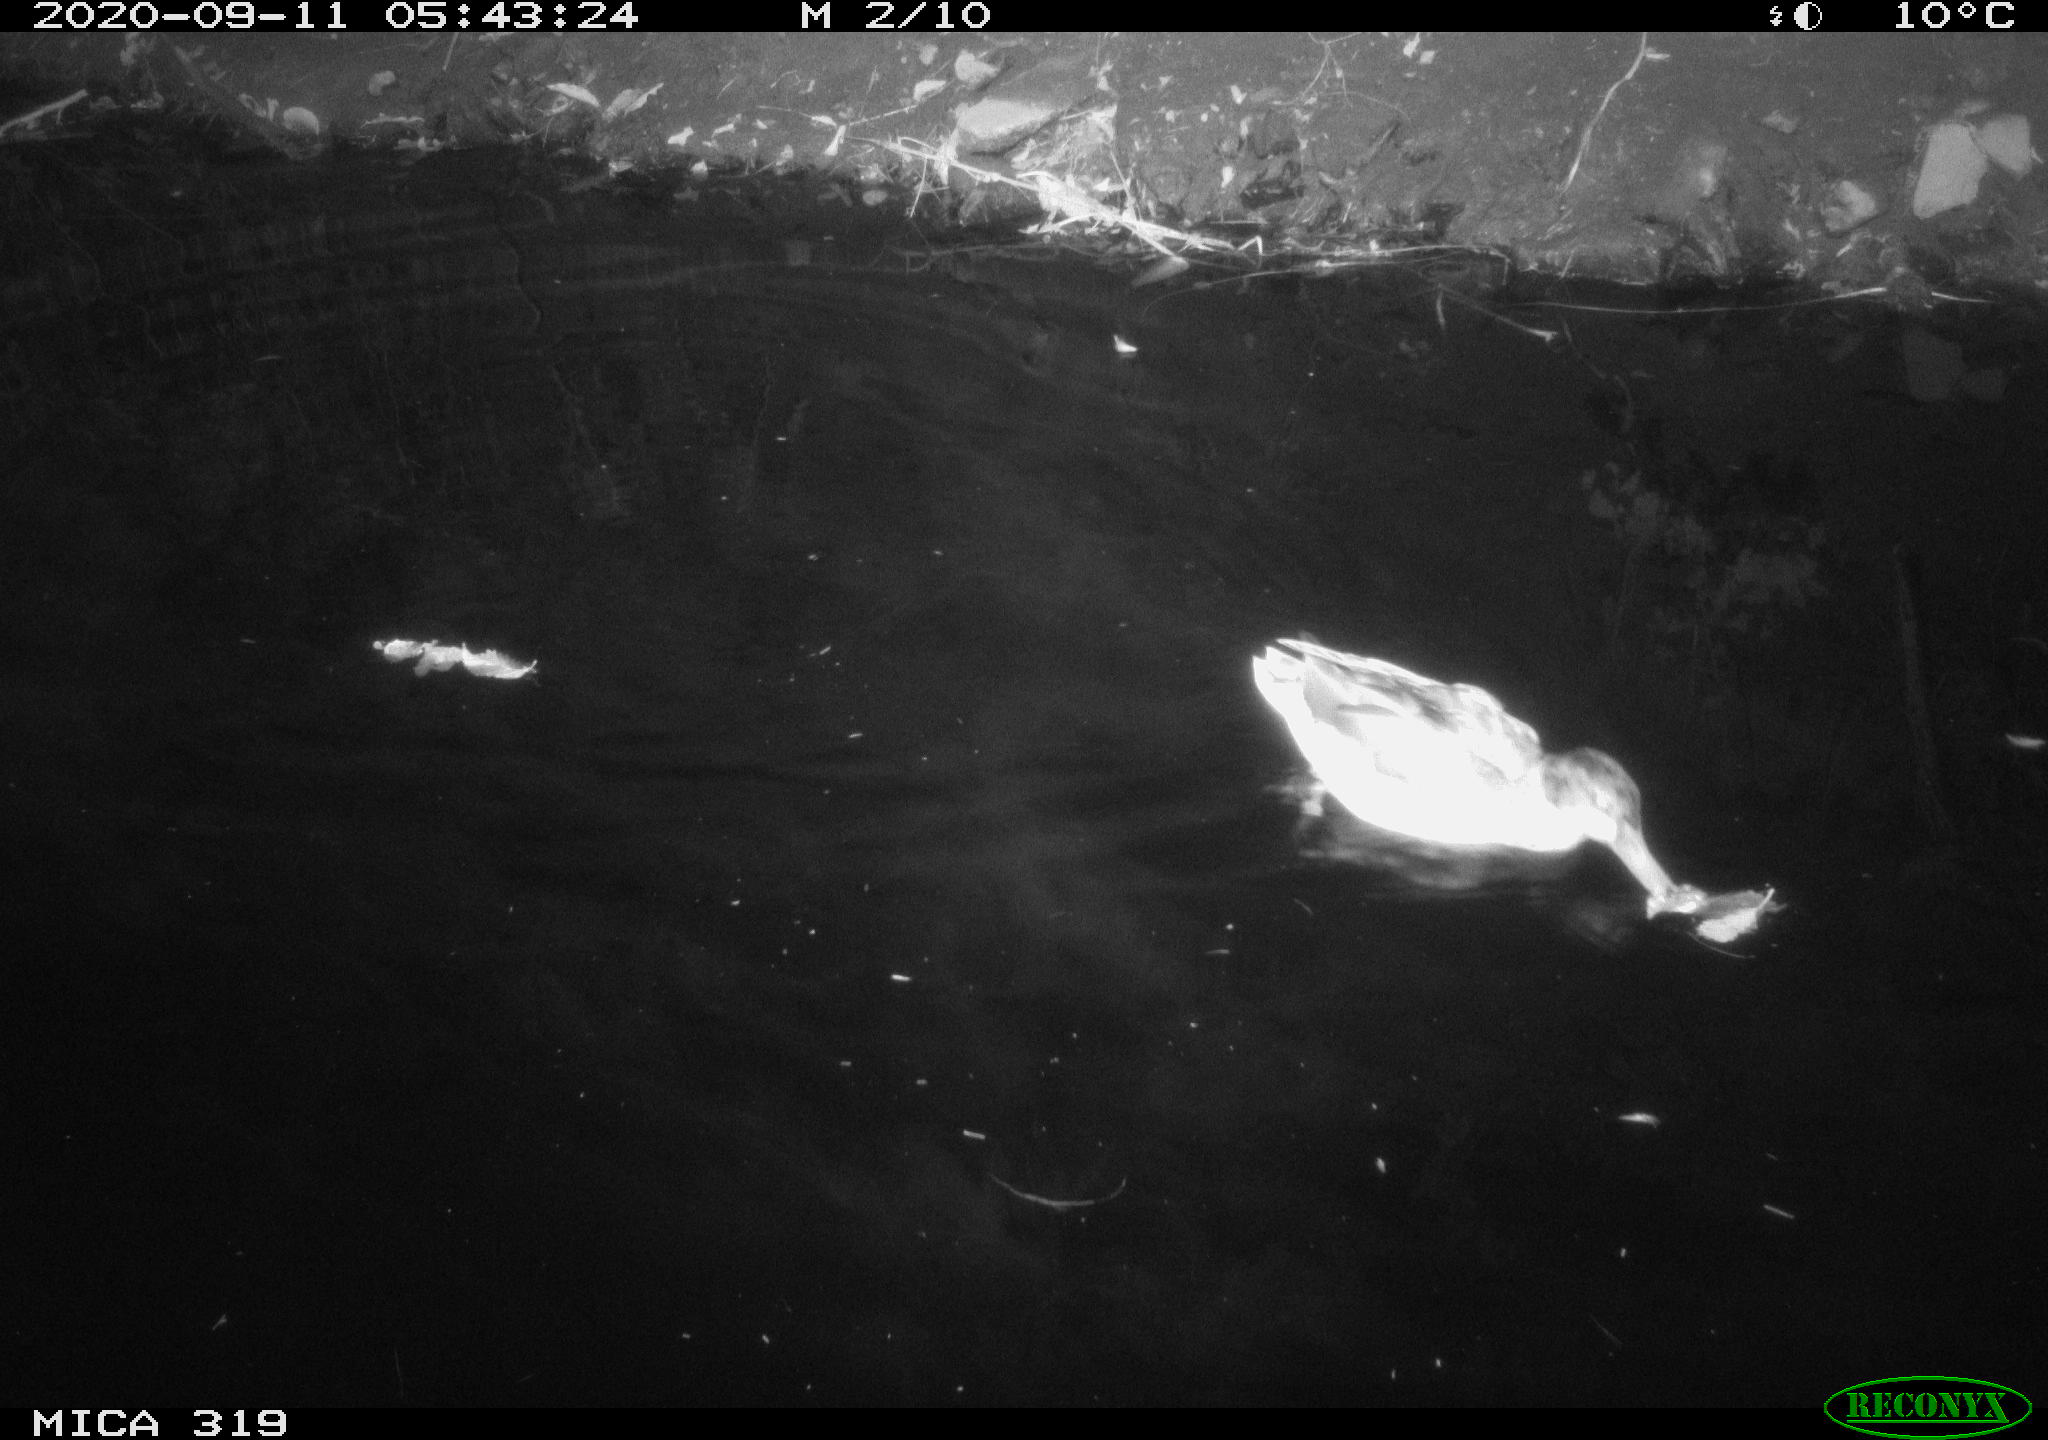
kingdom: Animalia
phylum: Chordata
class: Aves
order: Anseriformes
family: Anatidae
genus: Anas
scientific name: Anas platyrhynchos
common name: Mallard
